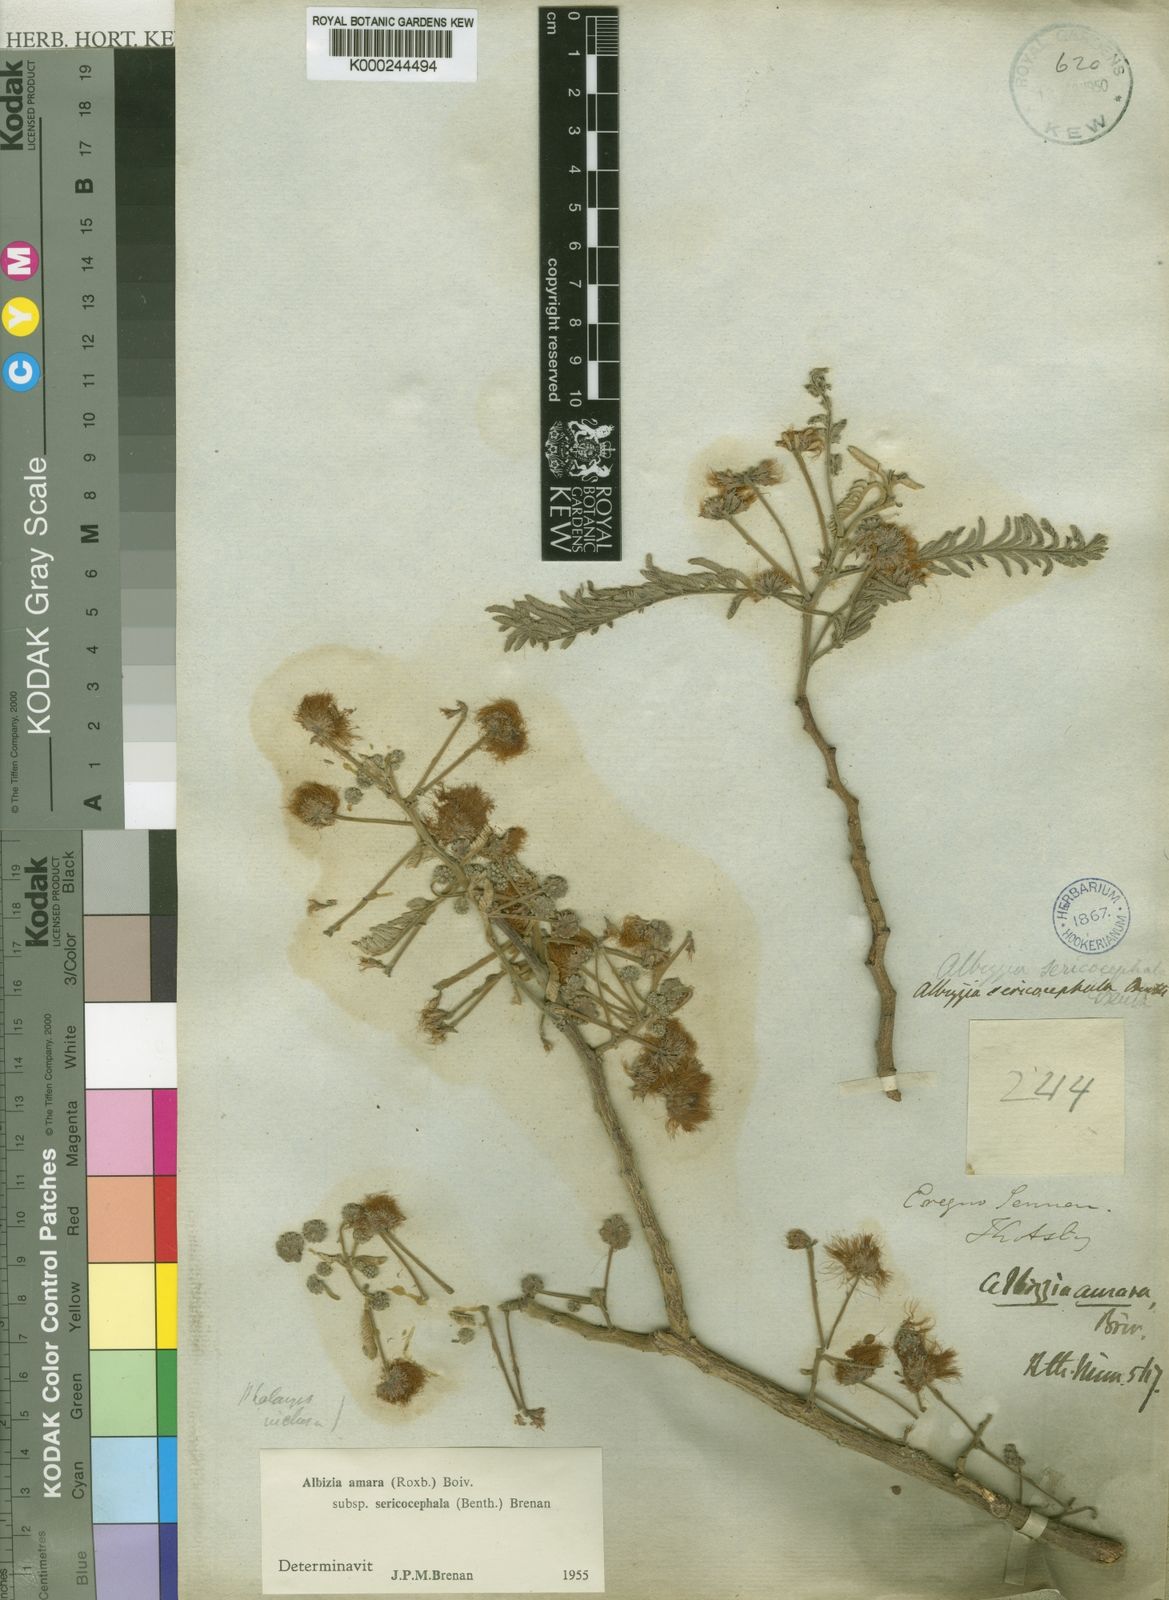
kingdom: Plantae
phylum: Tracheophyta
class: Magnoliopsida
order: Fabales
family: Fabaceae
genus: Albizia
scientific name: Albizia amara
